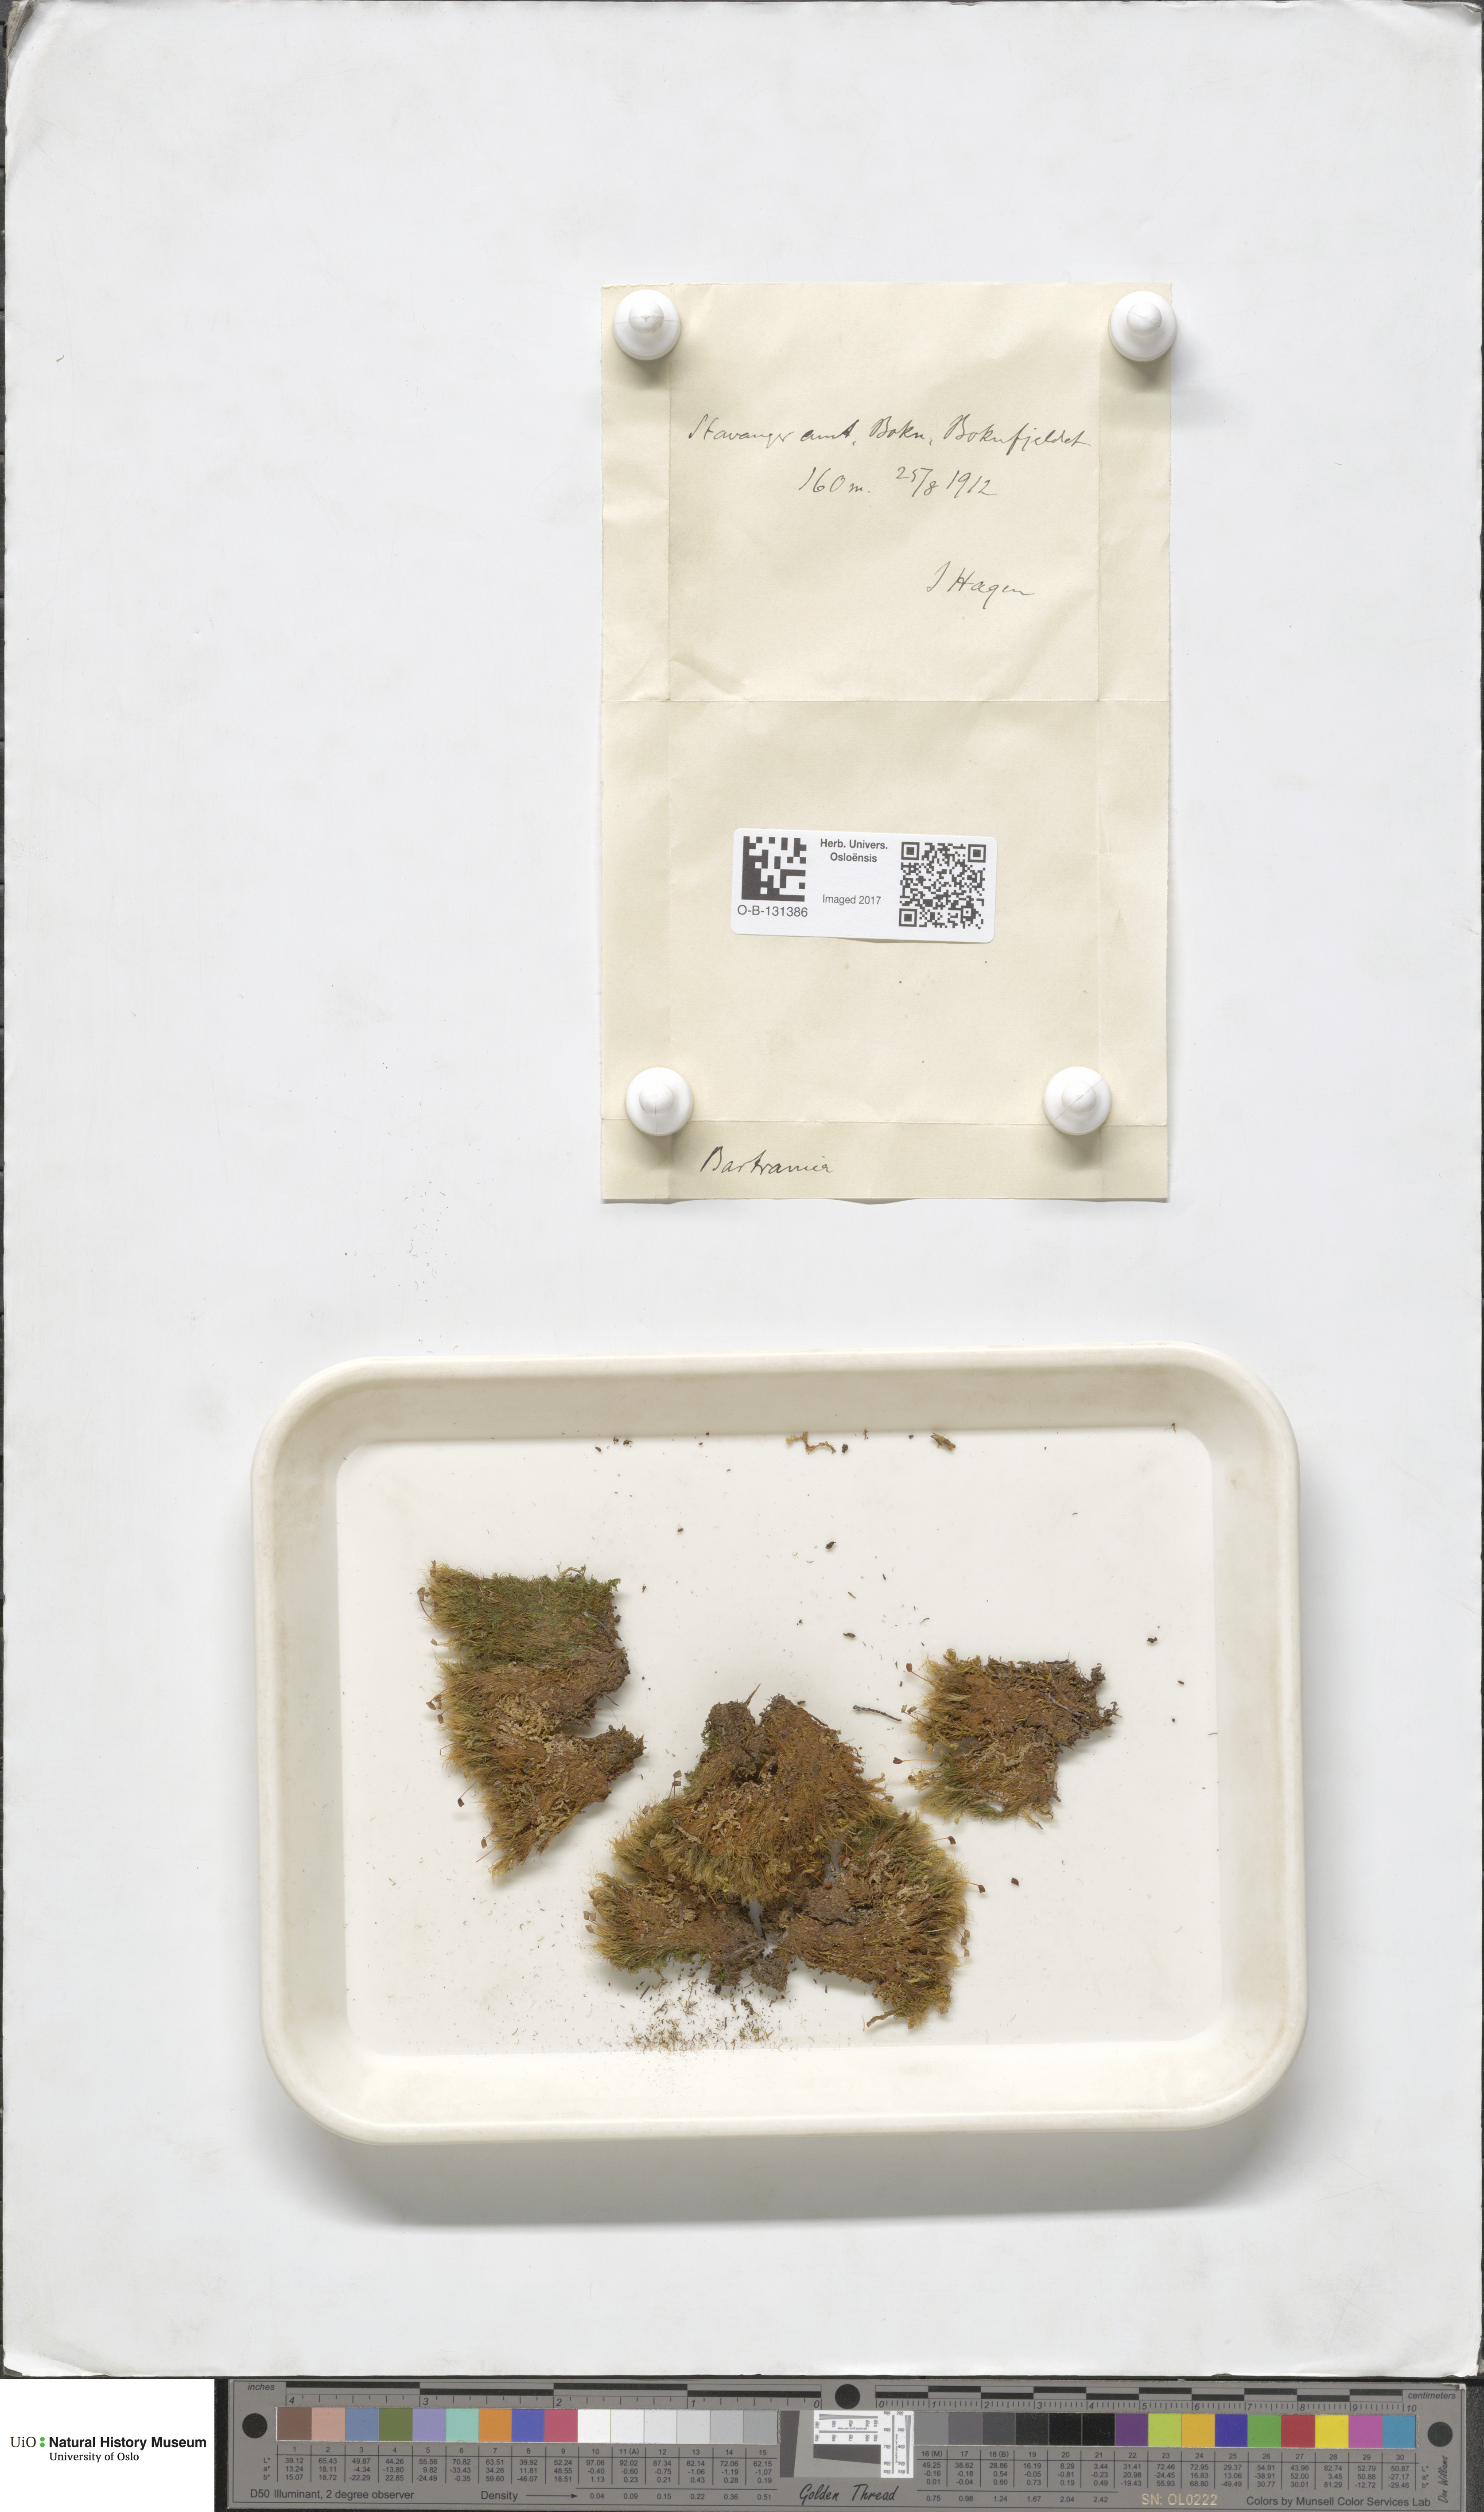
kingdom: Plantae
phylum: Bryophyta
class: Bryopsida
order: Bartramiales
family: Bartramiaceae
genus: Bartramia
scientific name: Bartramia
